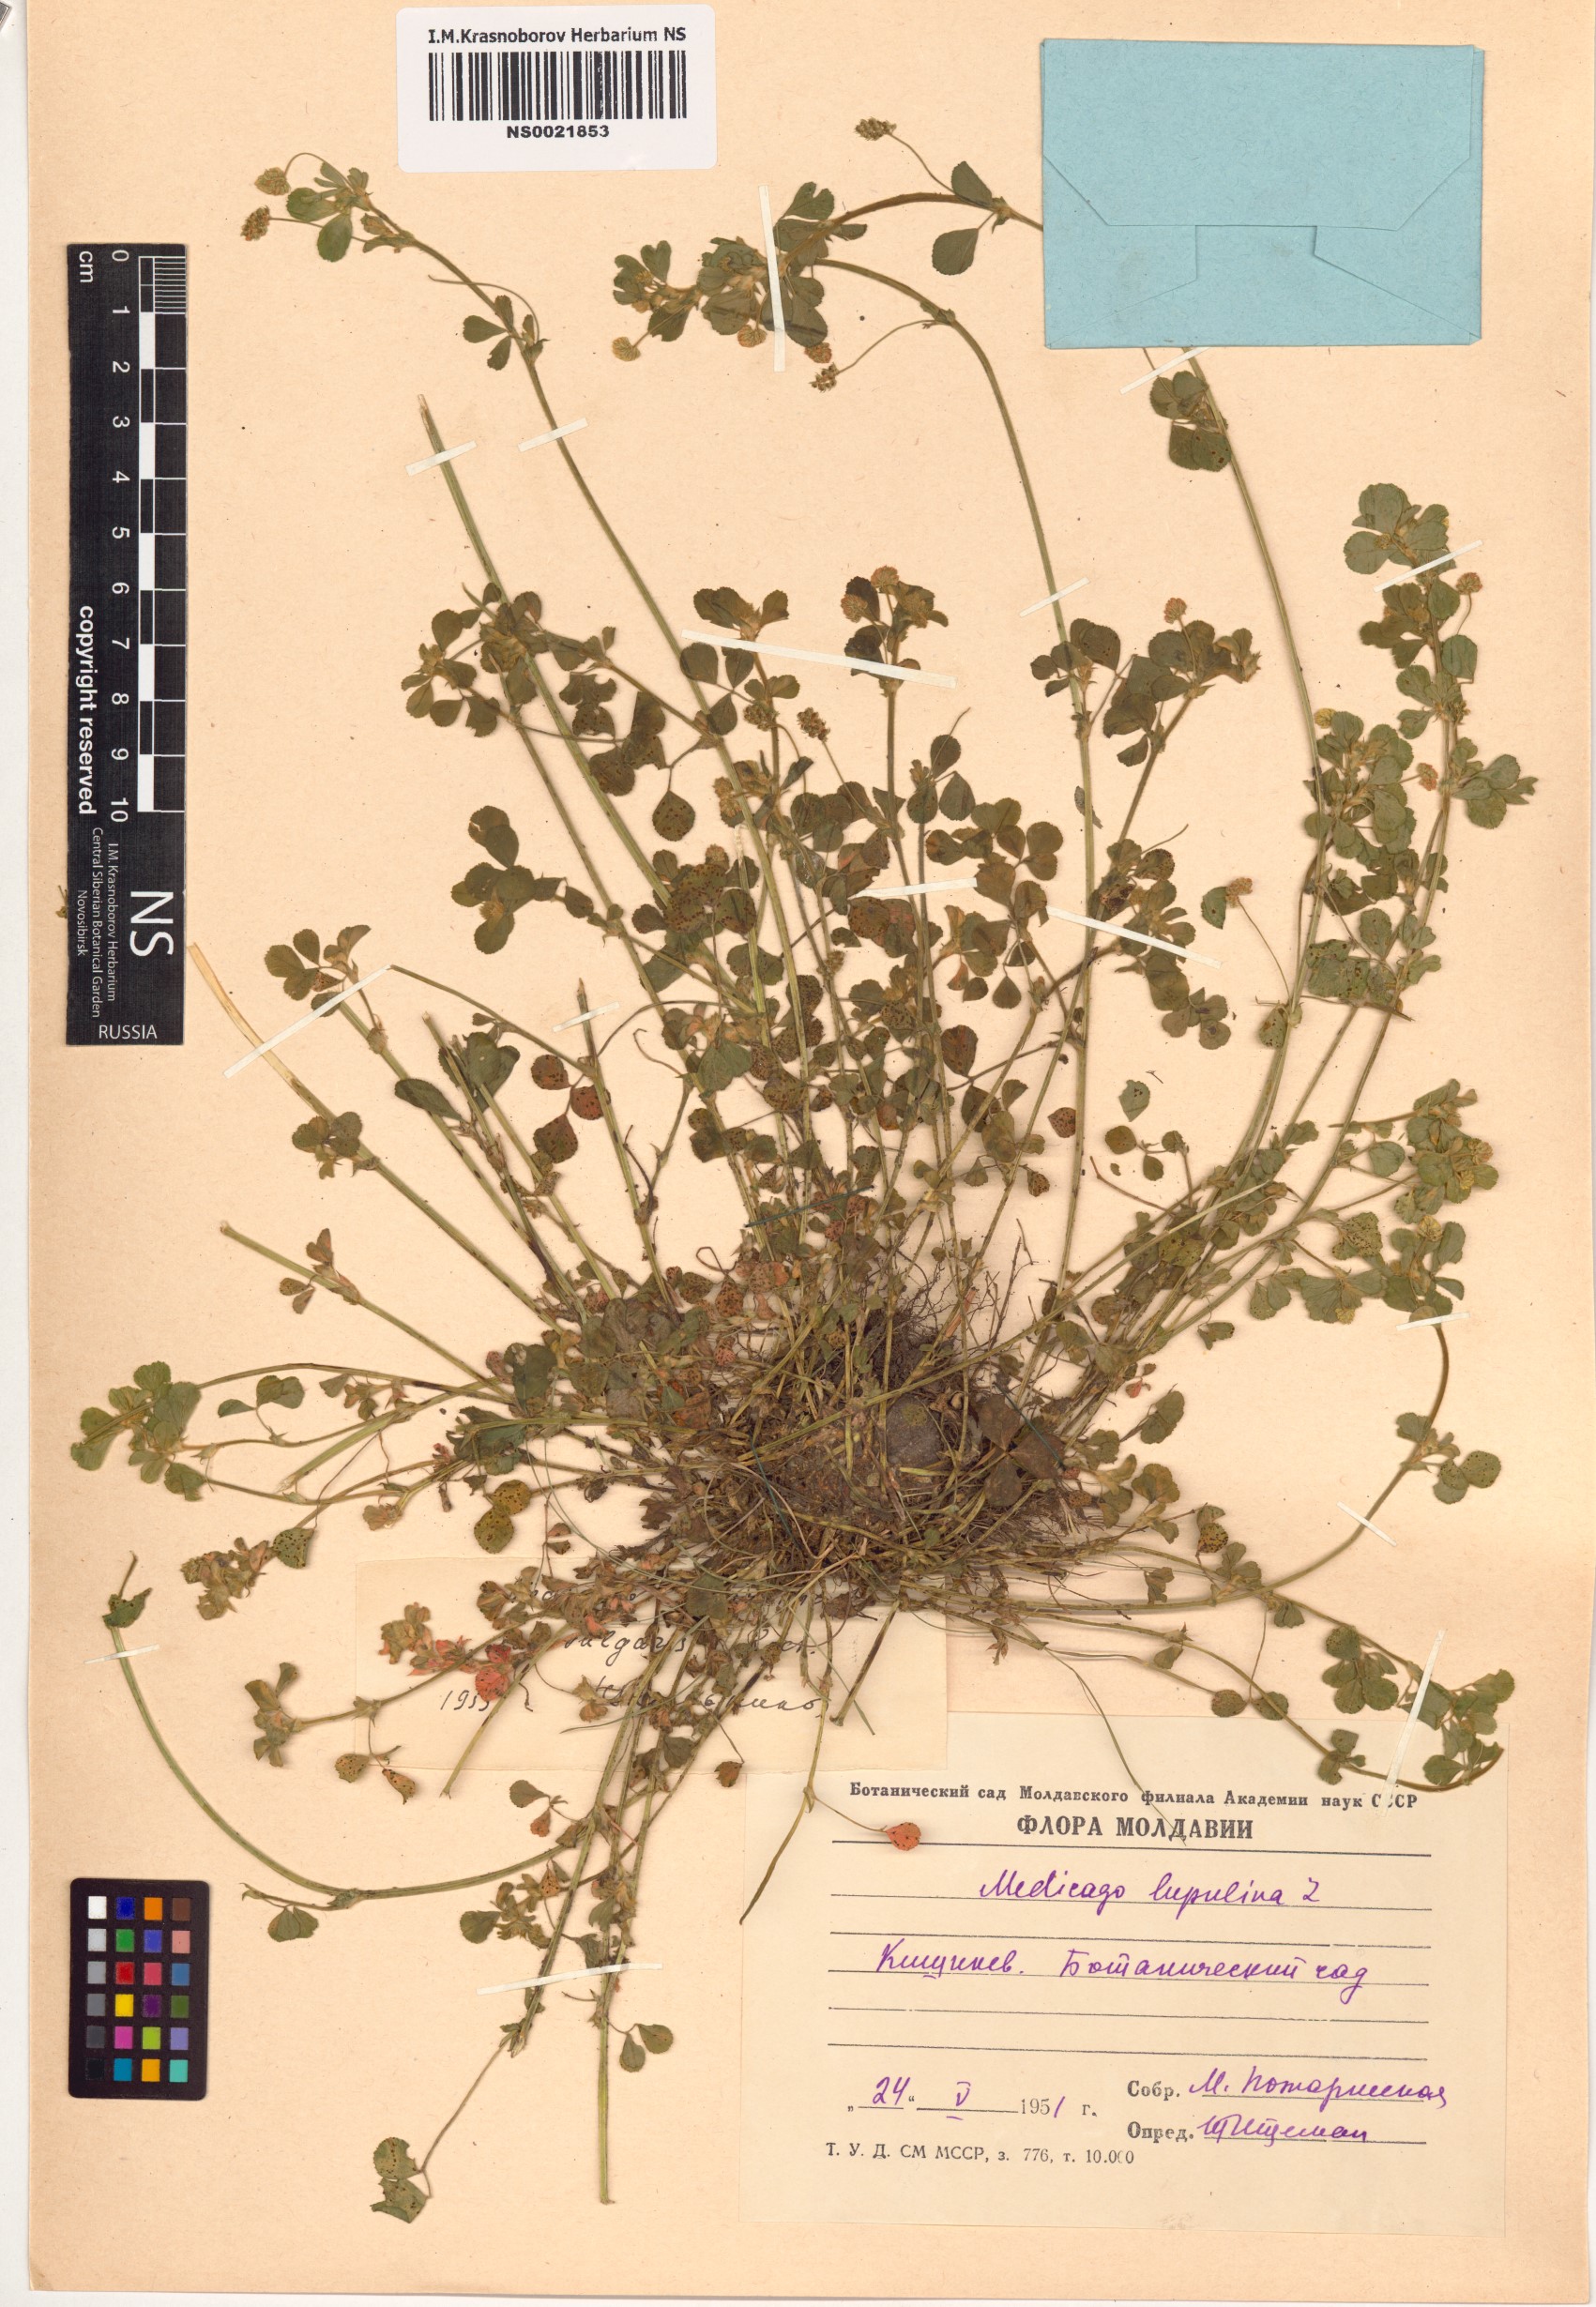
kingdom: Plantae
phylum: Tracheophyta
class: Magnoliopsida
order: Fabales
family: Fabaceae
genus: Medicago
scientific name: Medicago lupulina
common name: Black medick
